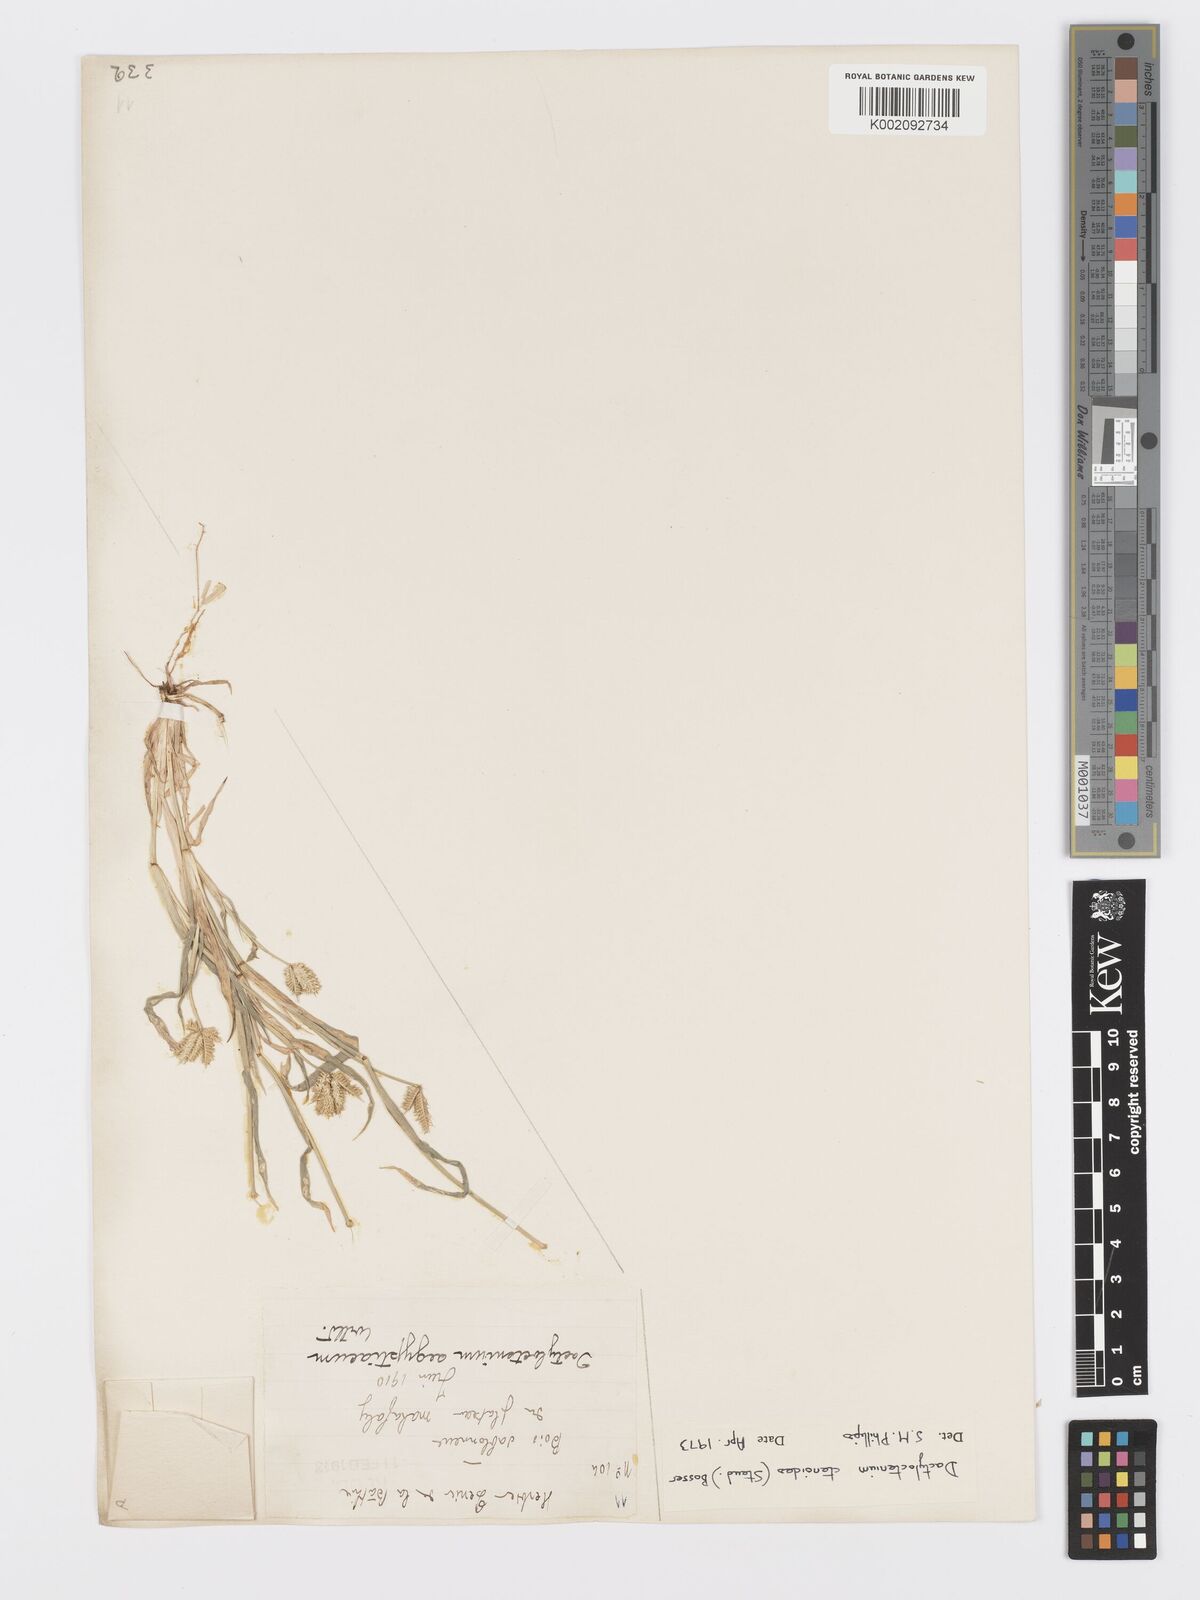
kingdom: Plantae
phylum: Tracheophyta
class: Liliopsida
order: Poales
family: Poaceae
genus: Dactyloctenium
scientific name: Dactyloctenium ctenoides
